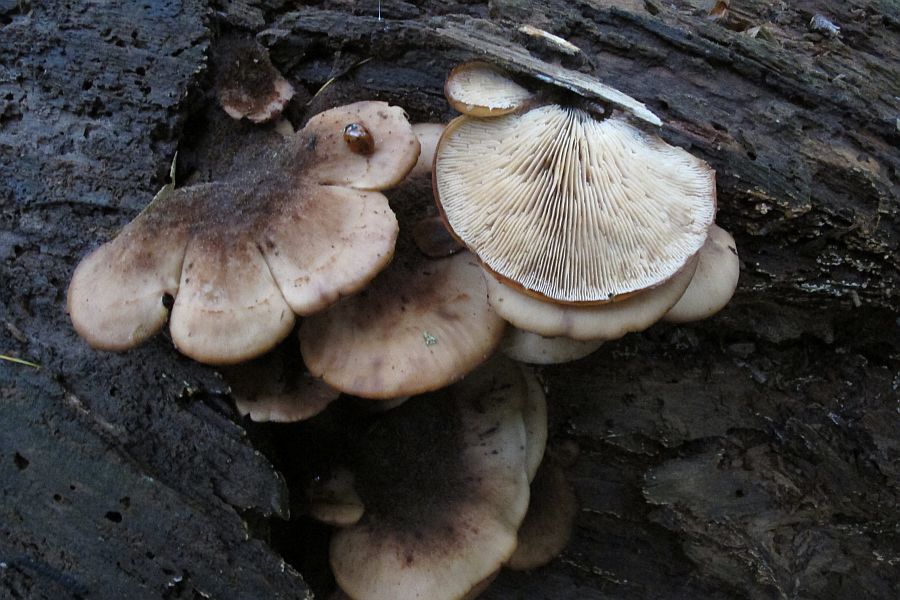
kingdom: Fungi
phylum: Basidiomycota
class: Agaricomycetes
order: Russulales
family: Auriscalpiaceae
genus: Lentinellus
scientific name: Lentinellus ursinus
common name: børstehåret savbladhat
